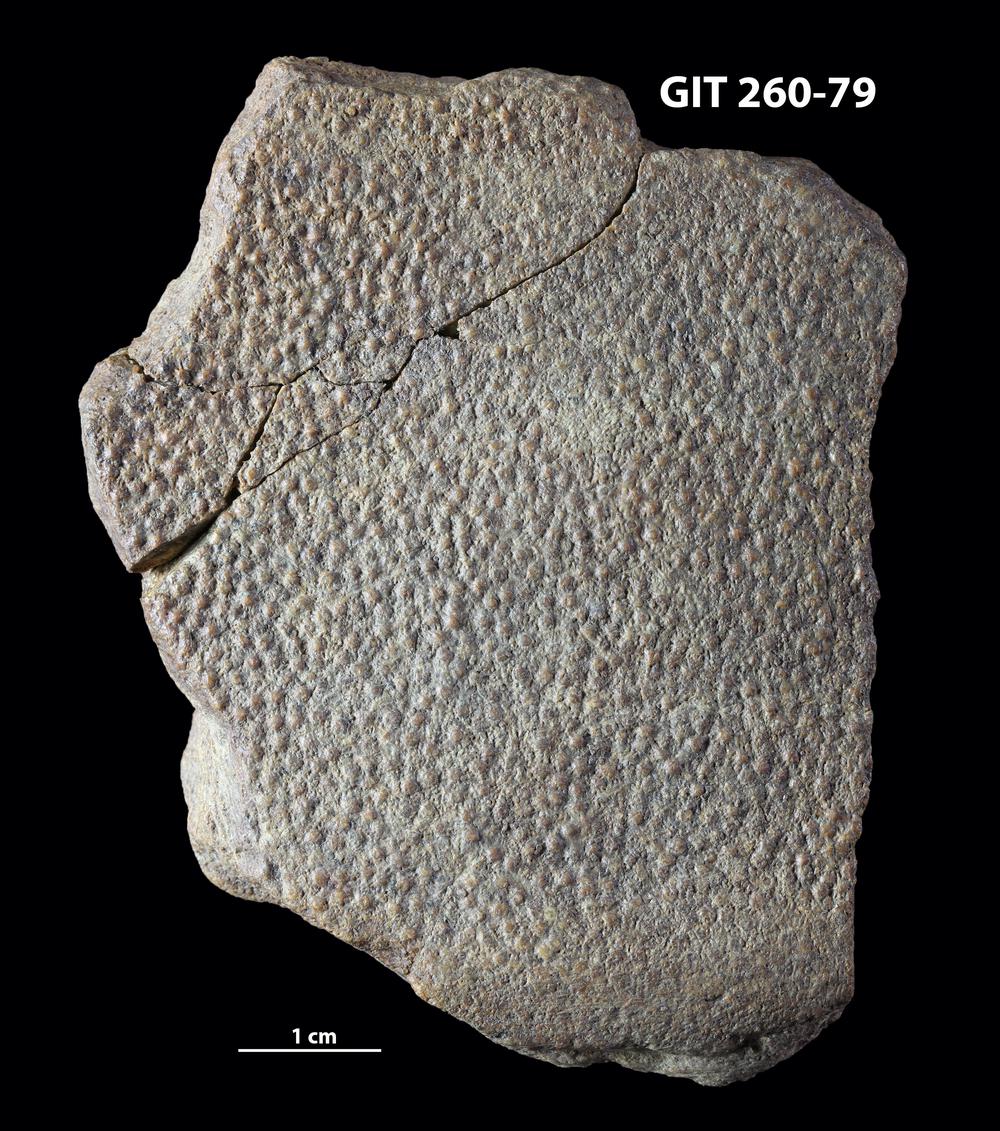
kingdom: Animalia
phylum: Chordata
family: Homostiidae
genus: Homostius
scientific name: Homostius
